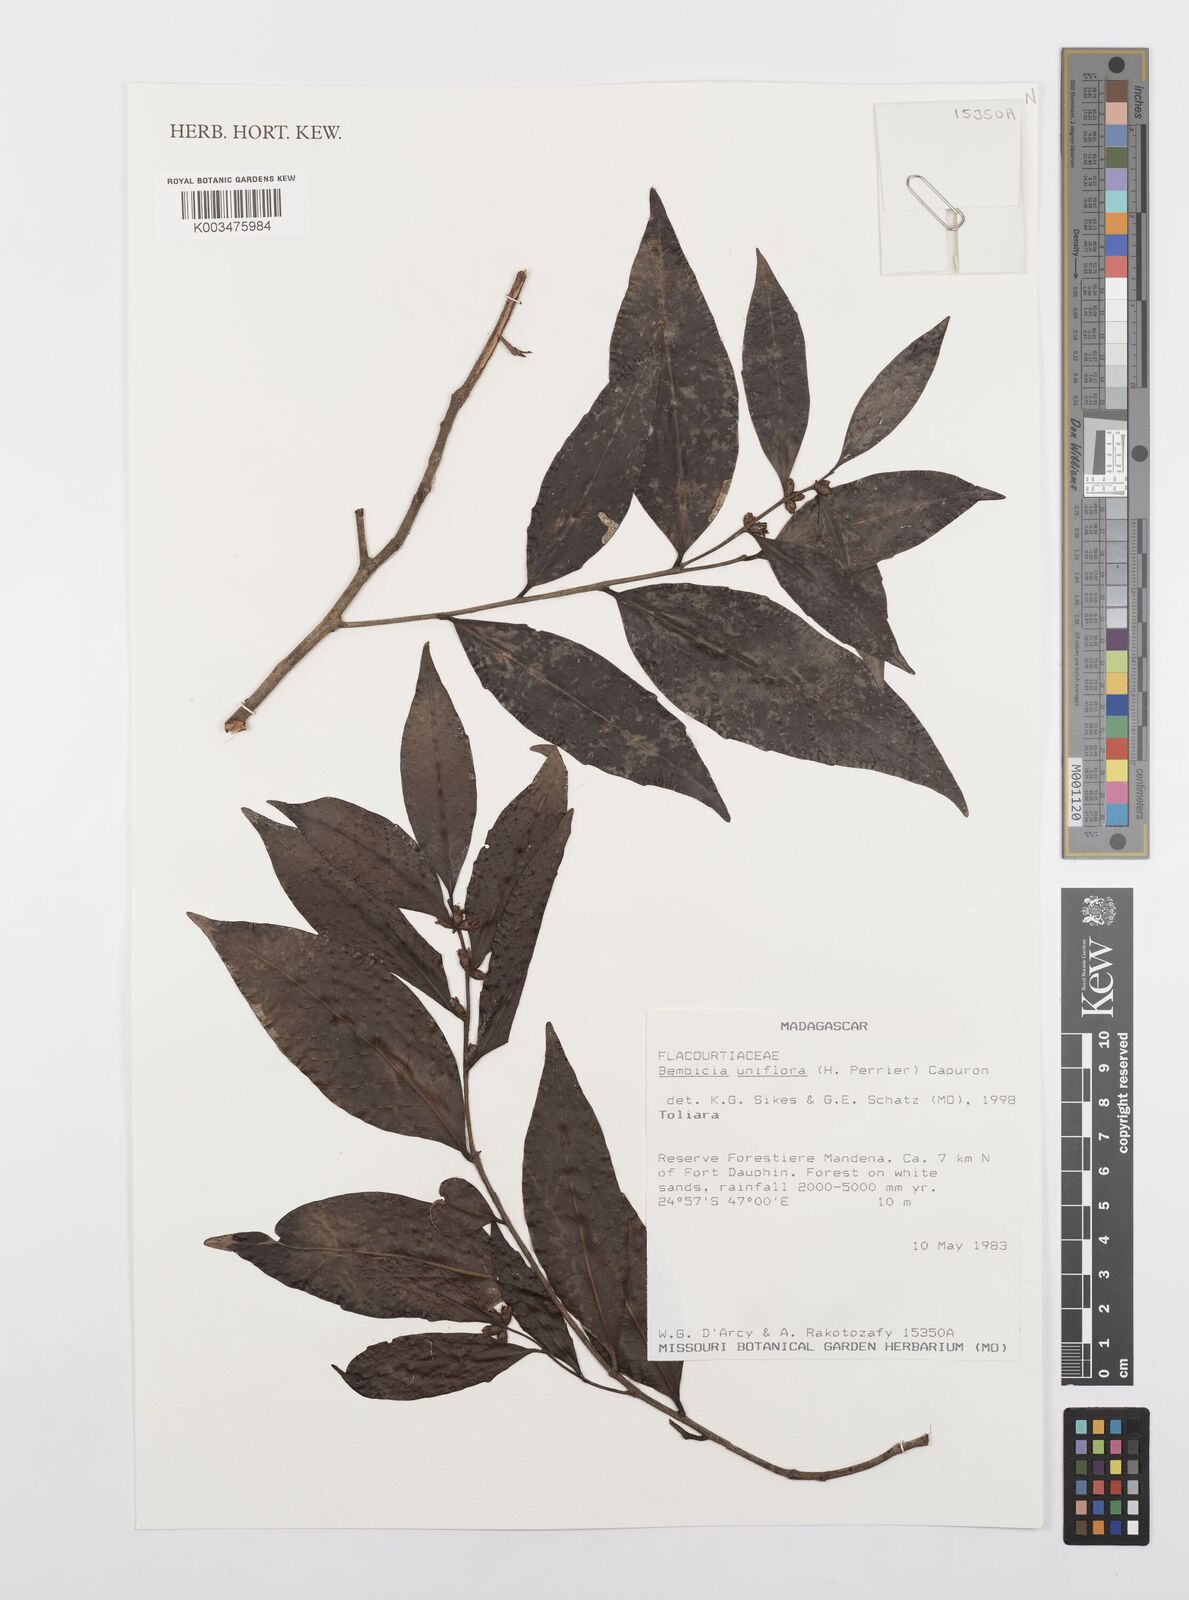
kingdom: Plantae
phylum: Tracheophyta
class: Magnoliopsida
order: Malpighiales
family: Salicaceae
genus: Bembicia
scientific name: Bembicia
